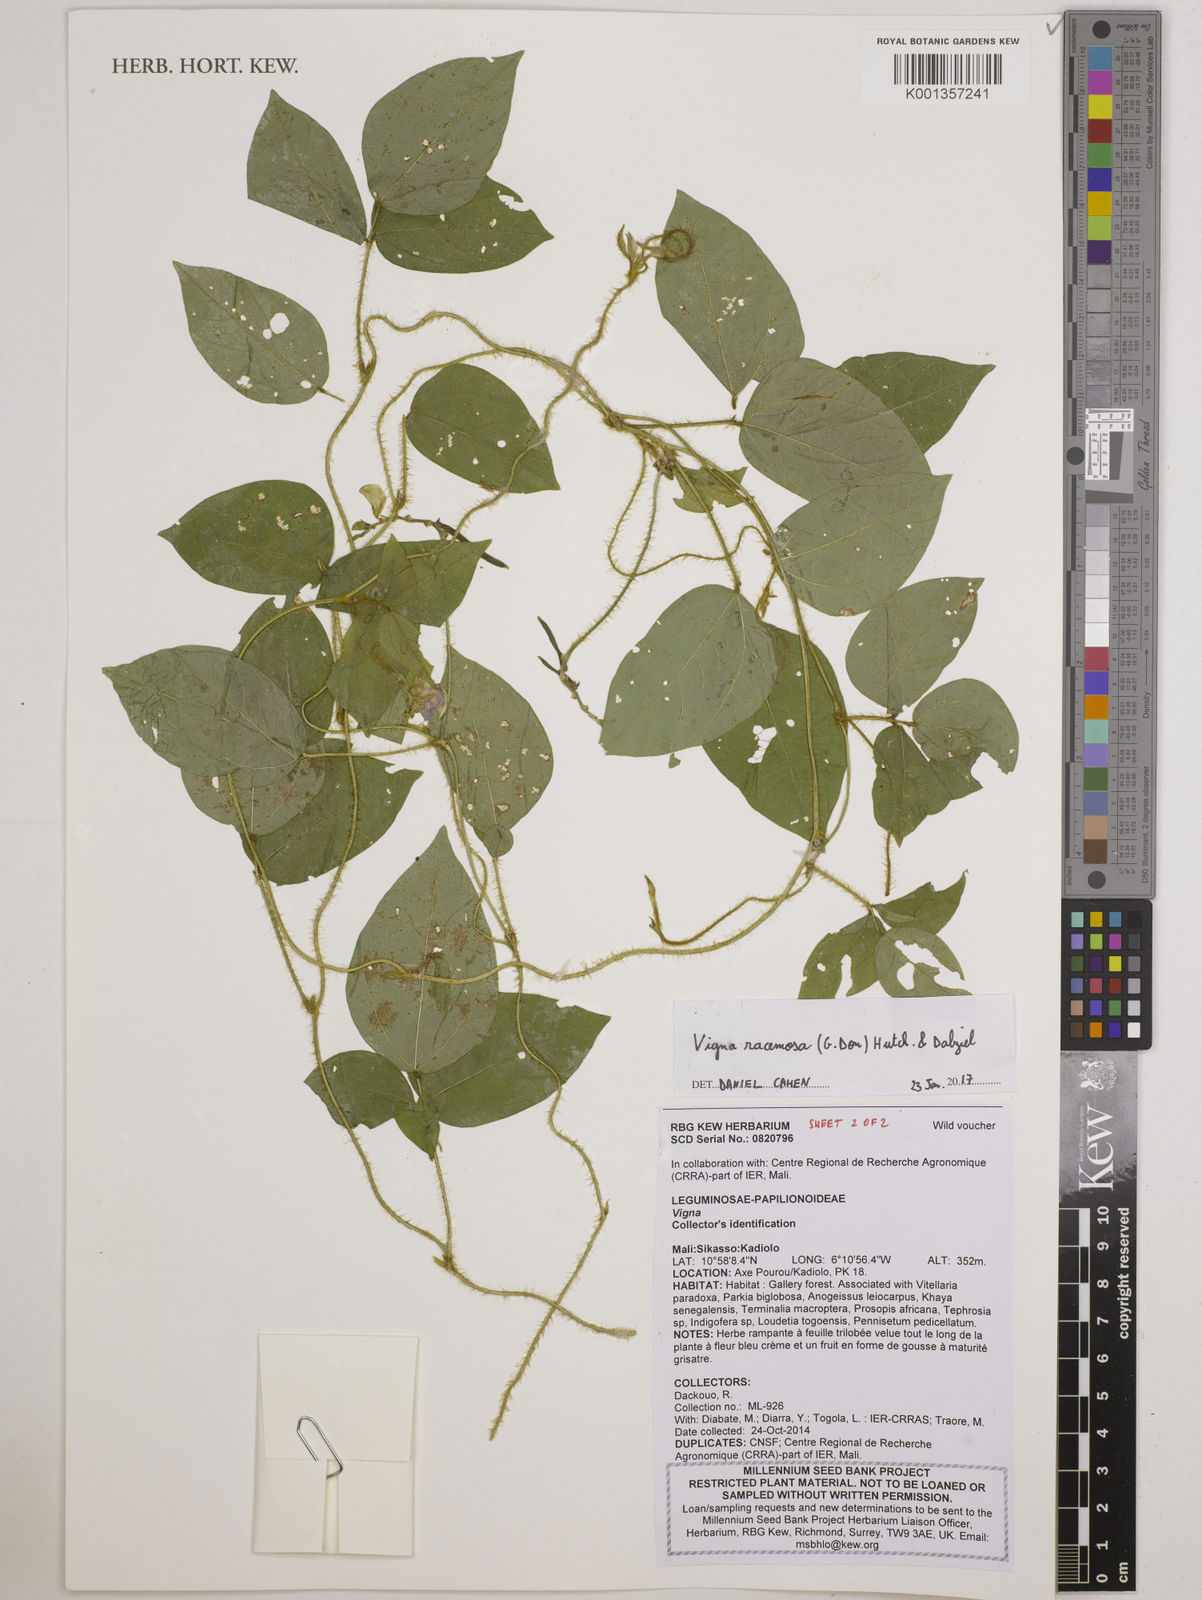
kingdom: Plantae
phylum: Tracheophyta
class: Magnoliopsida
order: Fabales
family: Fabaceae
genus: Vigna
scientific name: Vigna racemosa
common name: Beans not eaten
